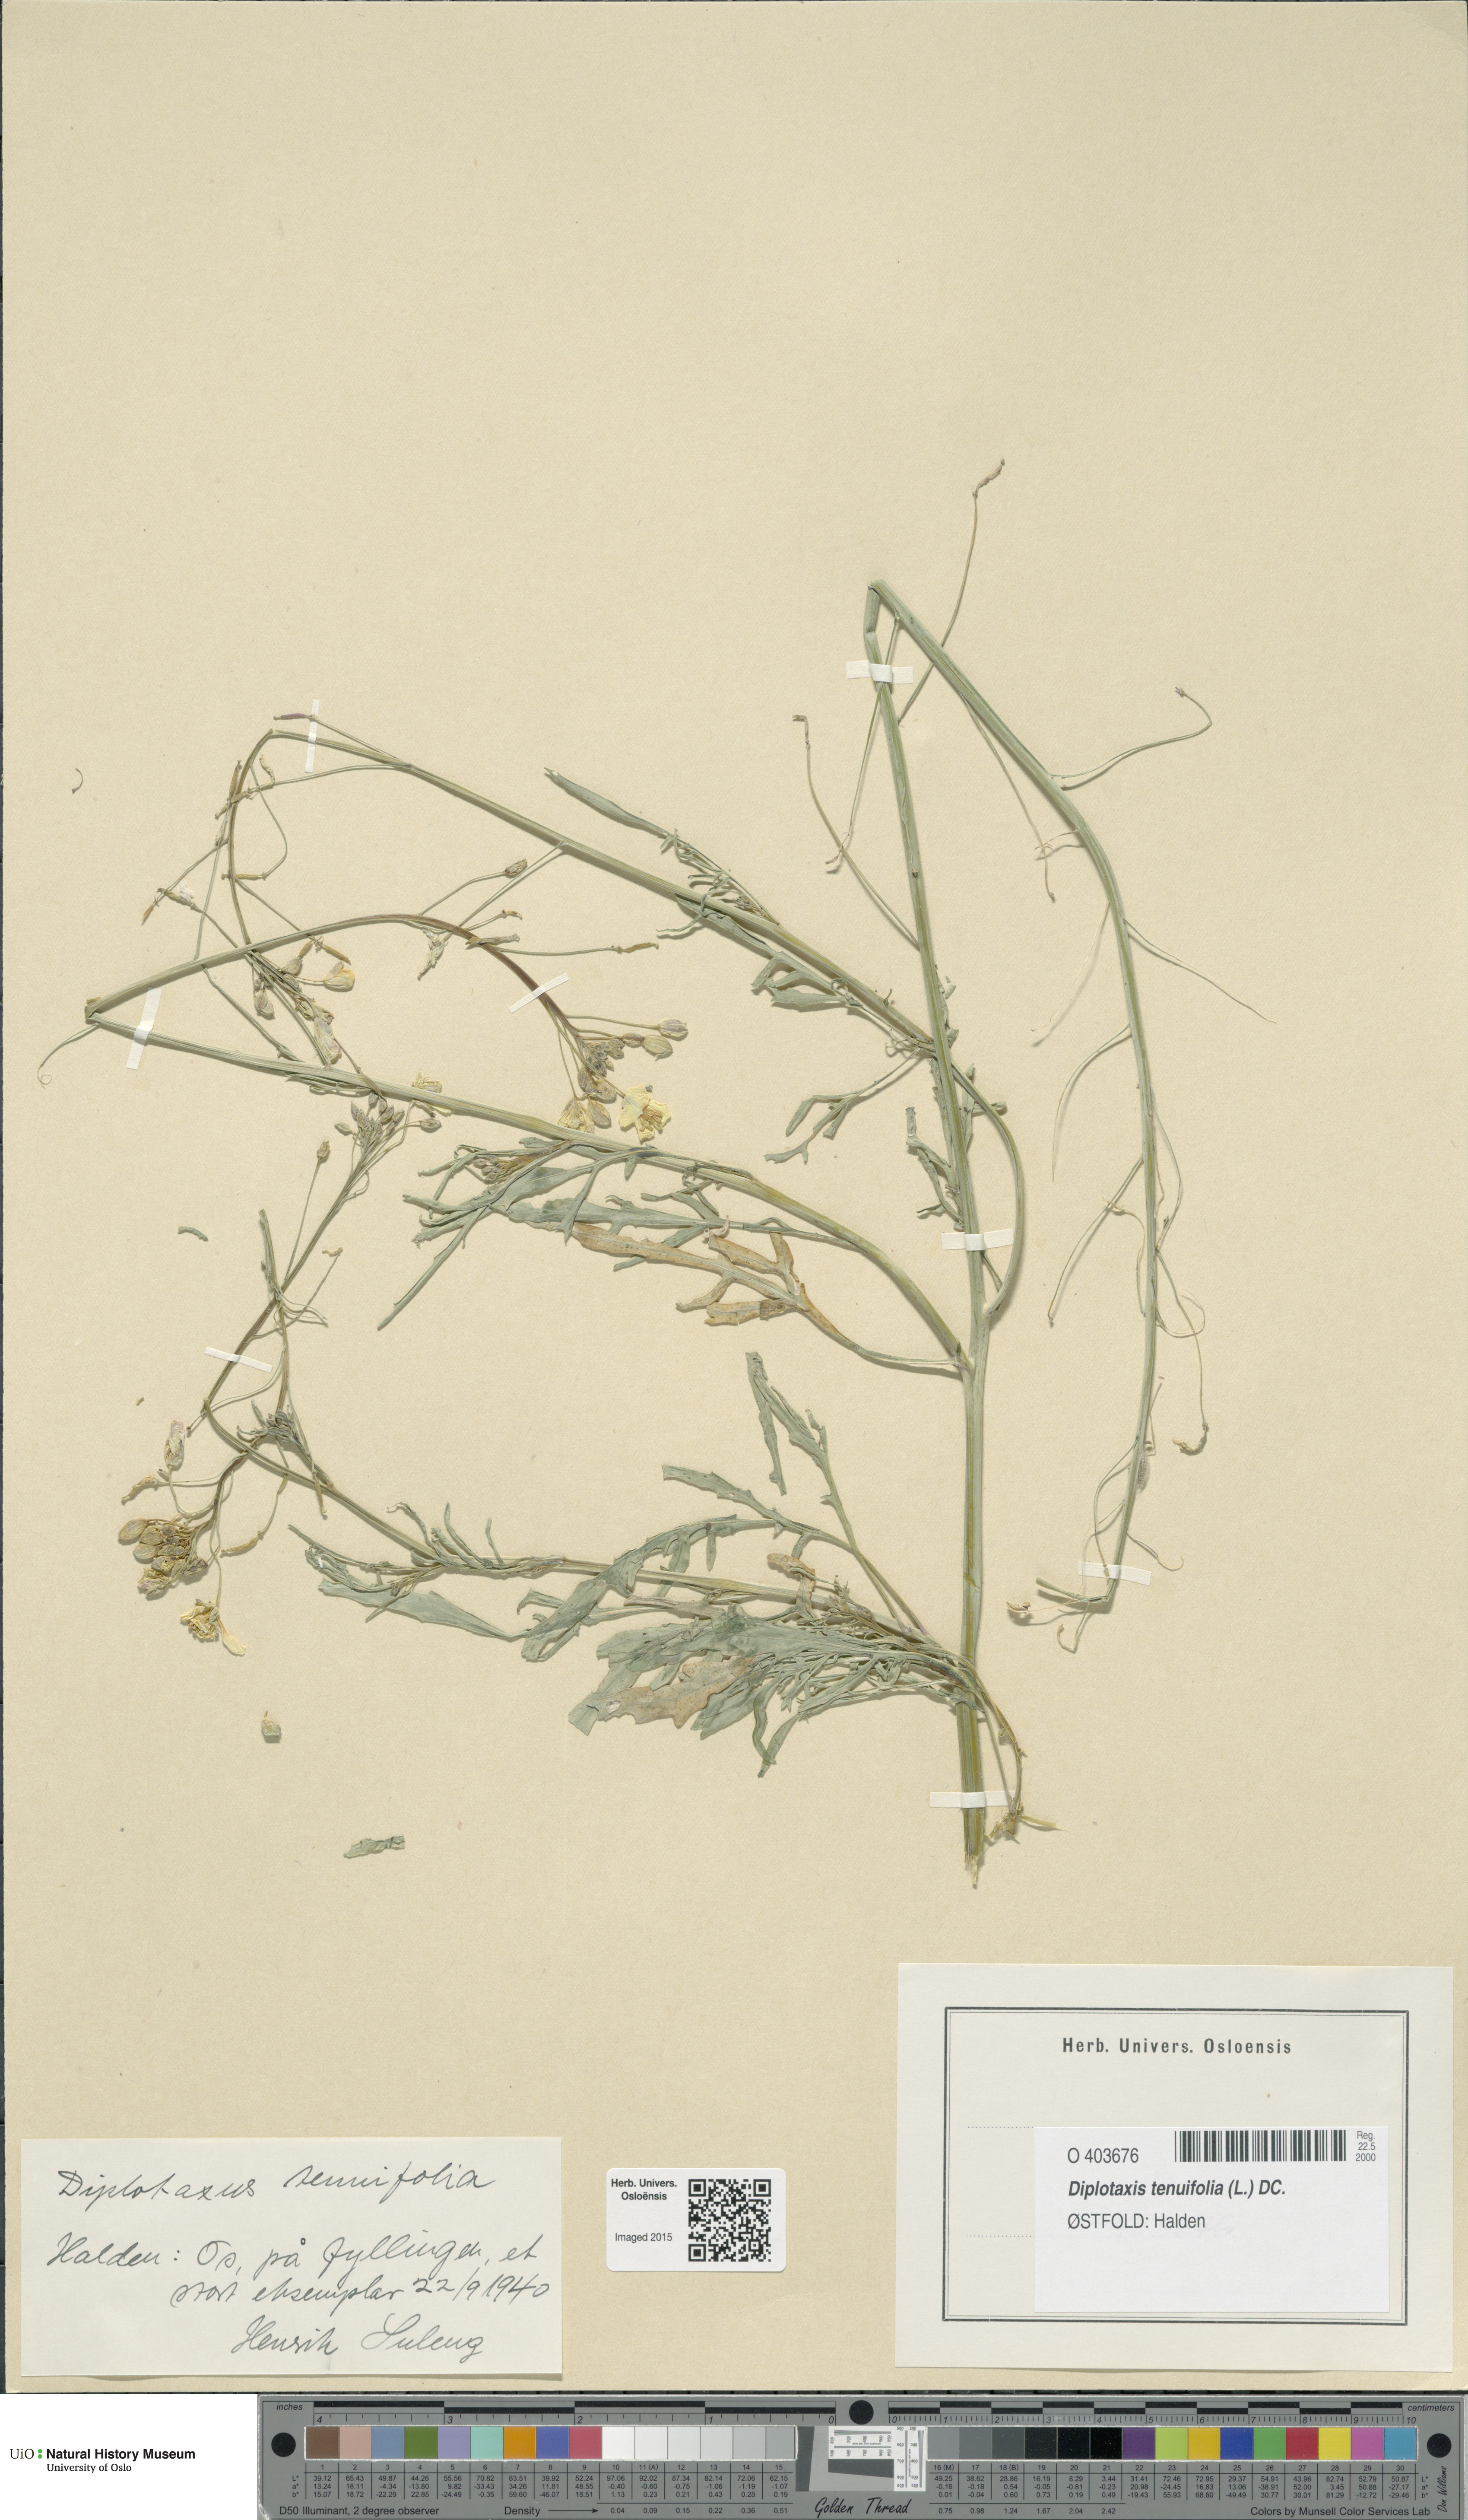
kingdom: Plantae
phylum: Tracheophyta
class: Magnoliopsida
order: Brassicales
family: Brassicaceae
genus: Diplotaxis
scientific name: Diplotaxis tenuifolia
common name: Perennial wall-rocket
